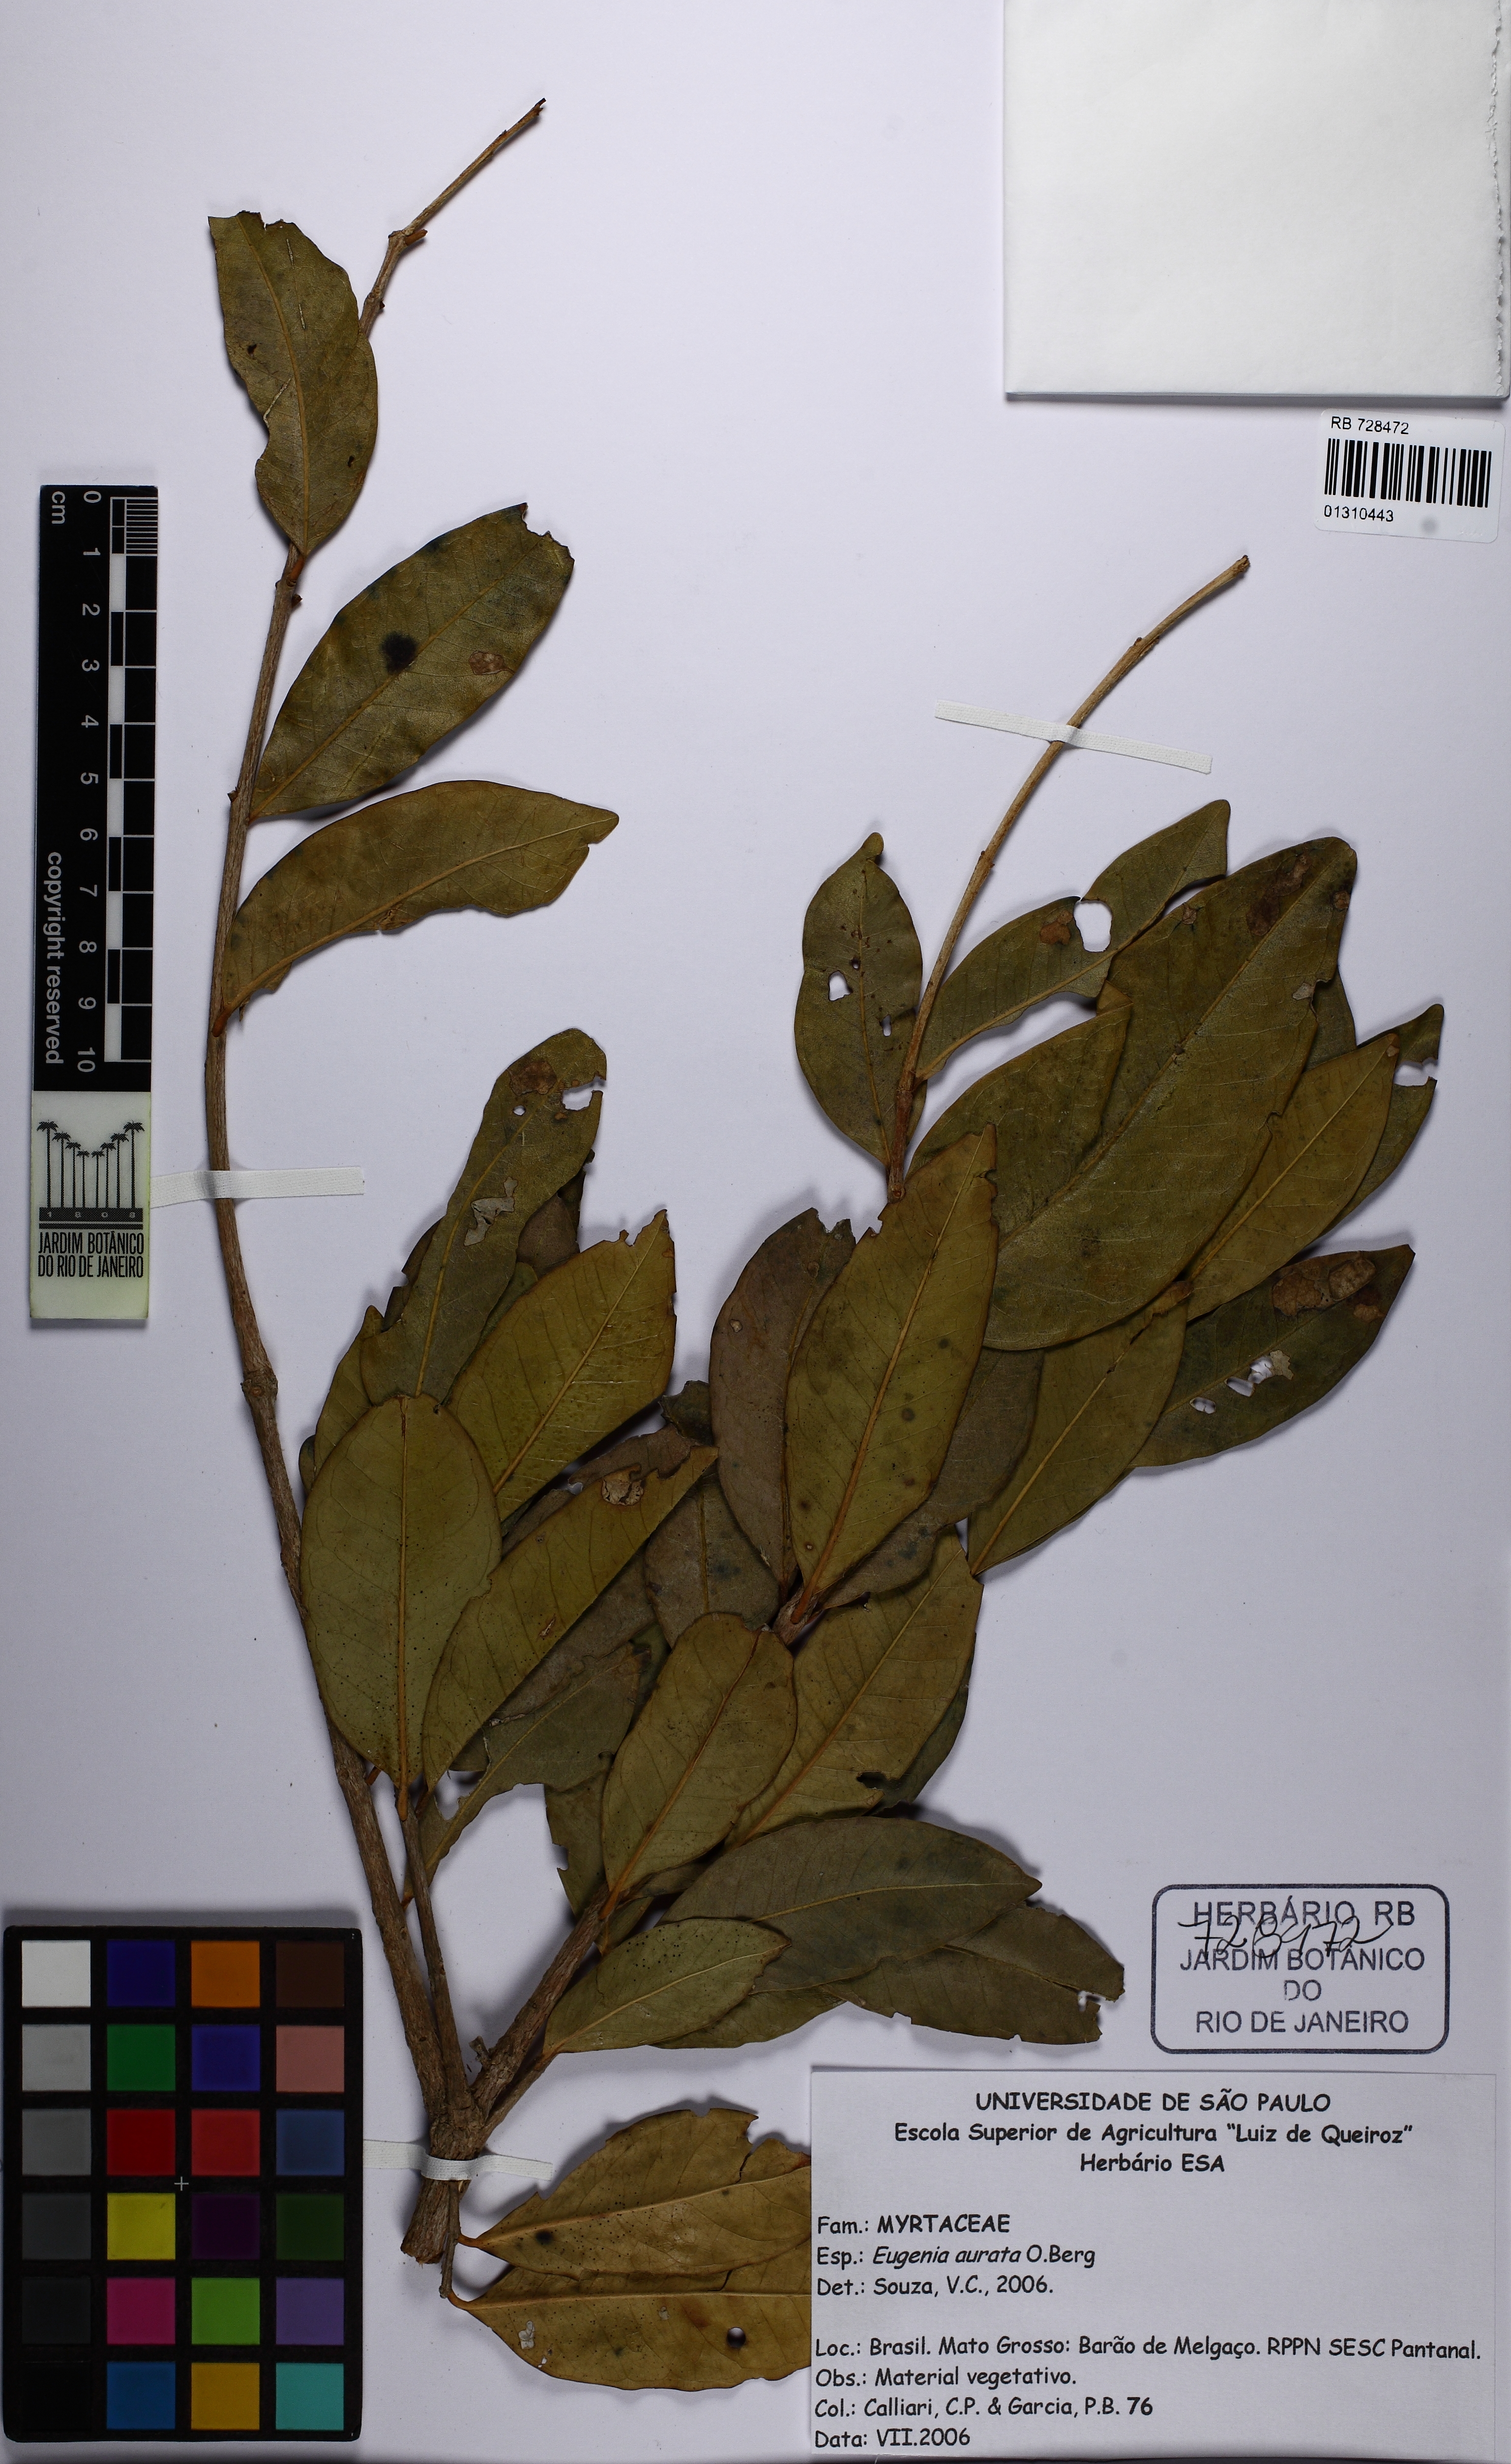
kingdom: Plantae
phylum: Tracheophyta
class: Magnoliopsida
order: Myrtales
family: Myrtaceae
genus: Eugenia
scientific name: Eugenia aurata
